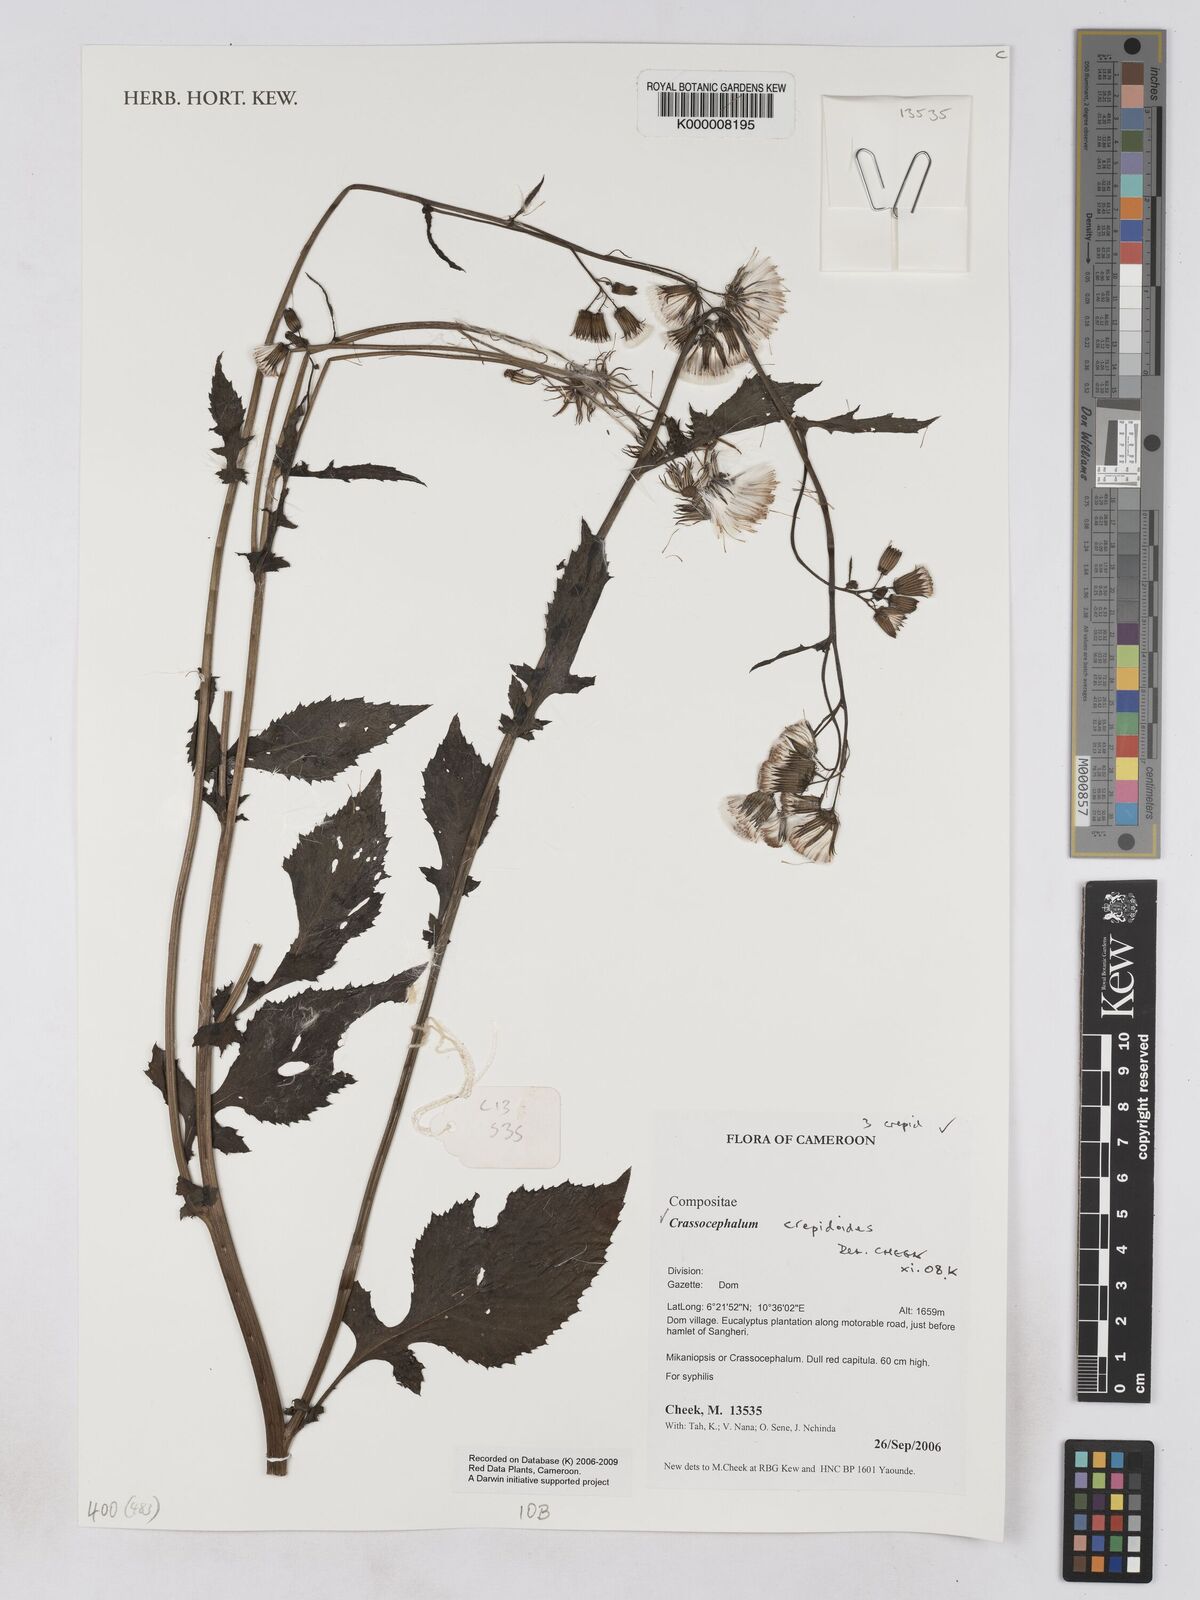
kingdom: Plantae
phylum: Tracheophyta
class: Magnoliopsida
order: Asterales
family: Asteraceae
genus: Crassocephalum
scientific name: Crassocephalum crepidioides
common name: Redflower ragleaf
